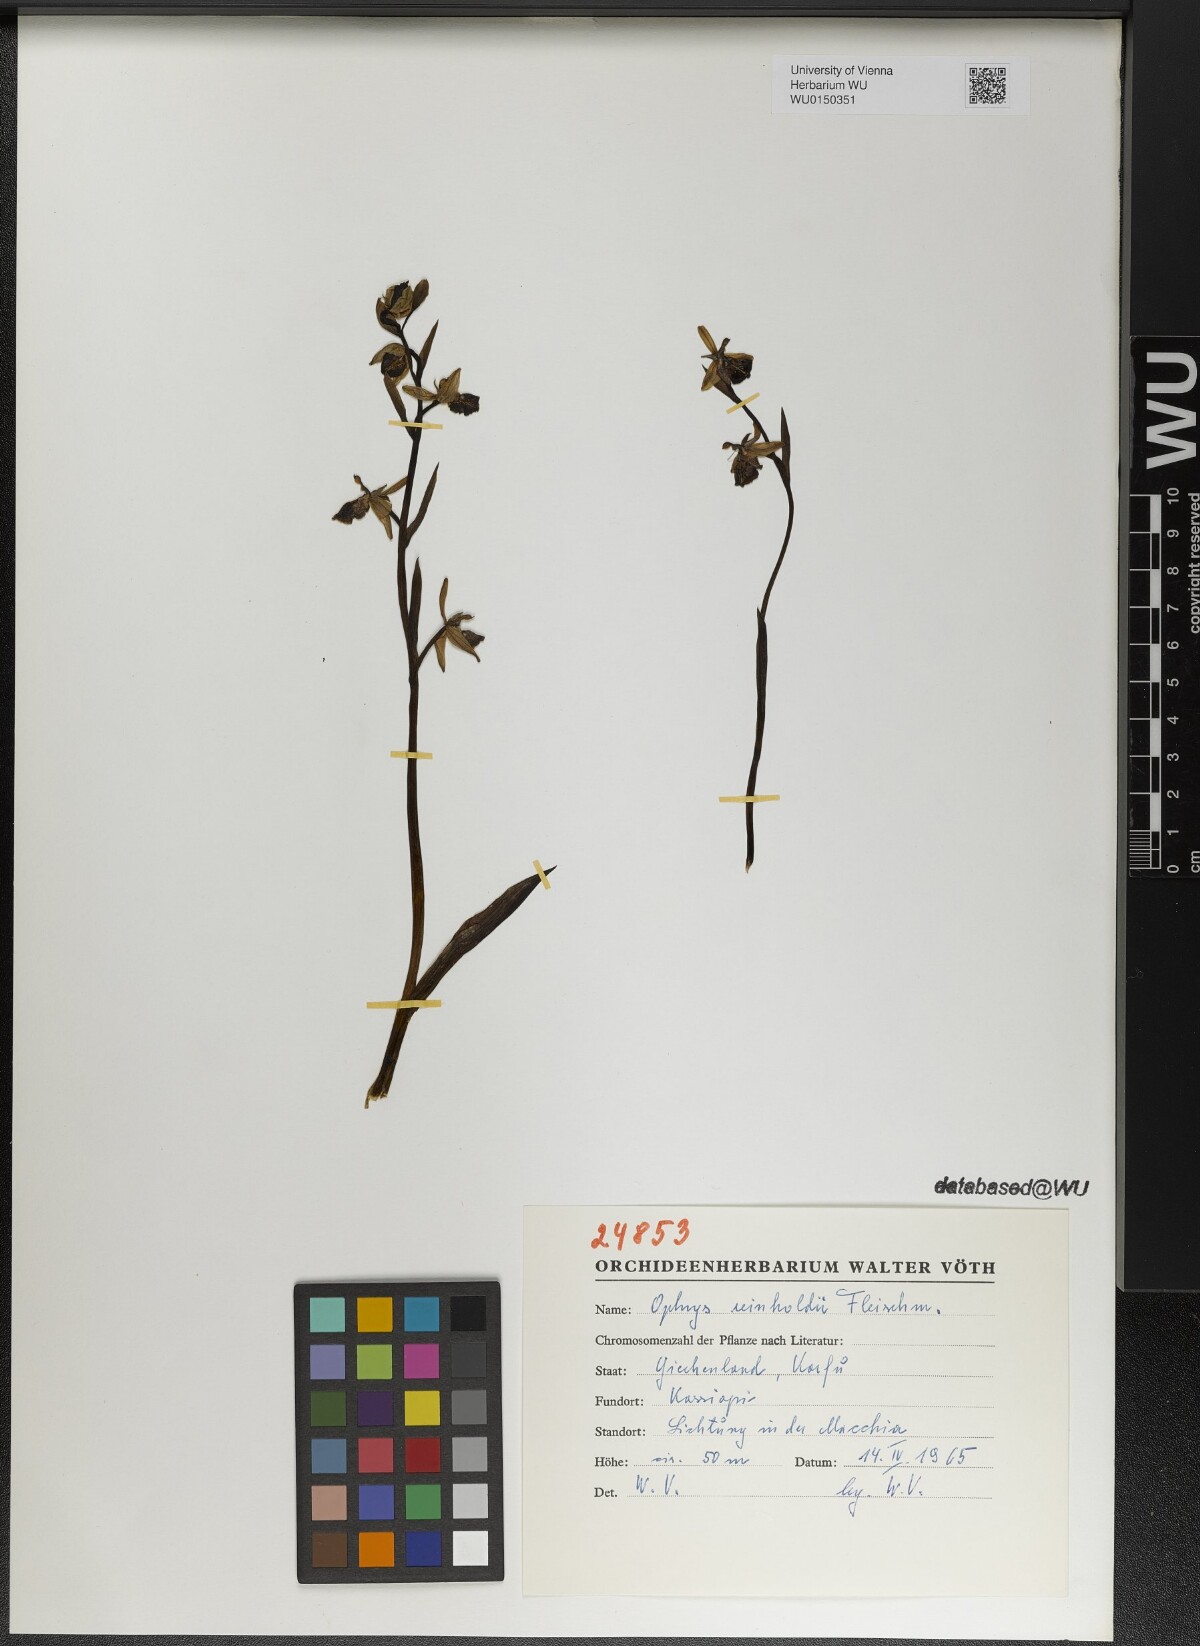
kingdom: Plantae
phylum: Tracheophyta
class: Liliopsida
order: Asparagales
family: Orchidaceae
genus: Ophrys
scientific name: Ophrys reinholdii
